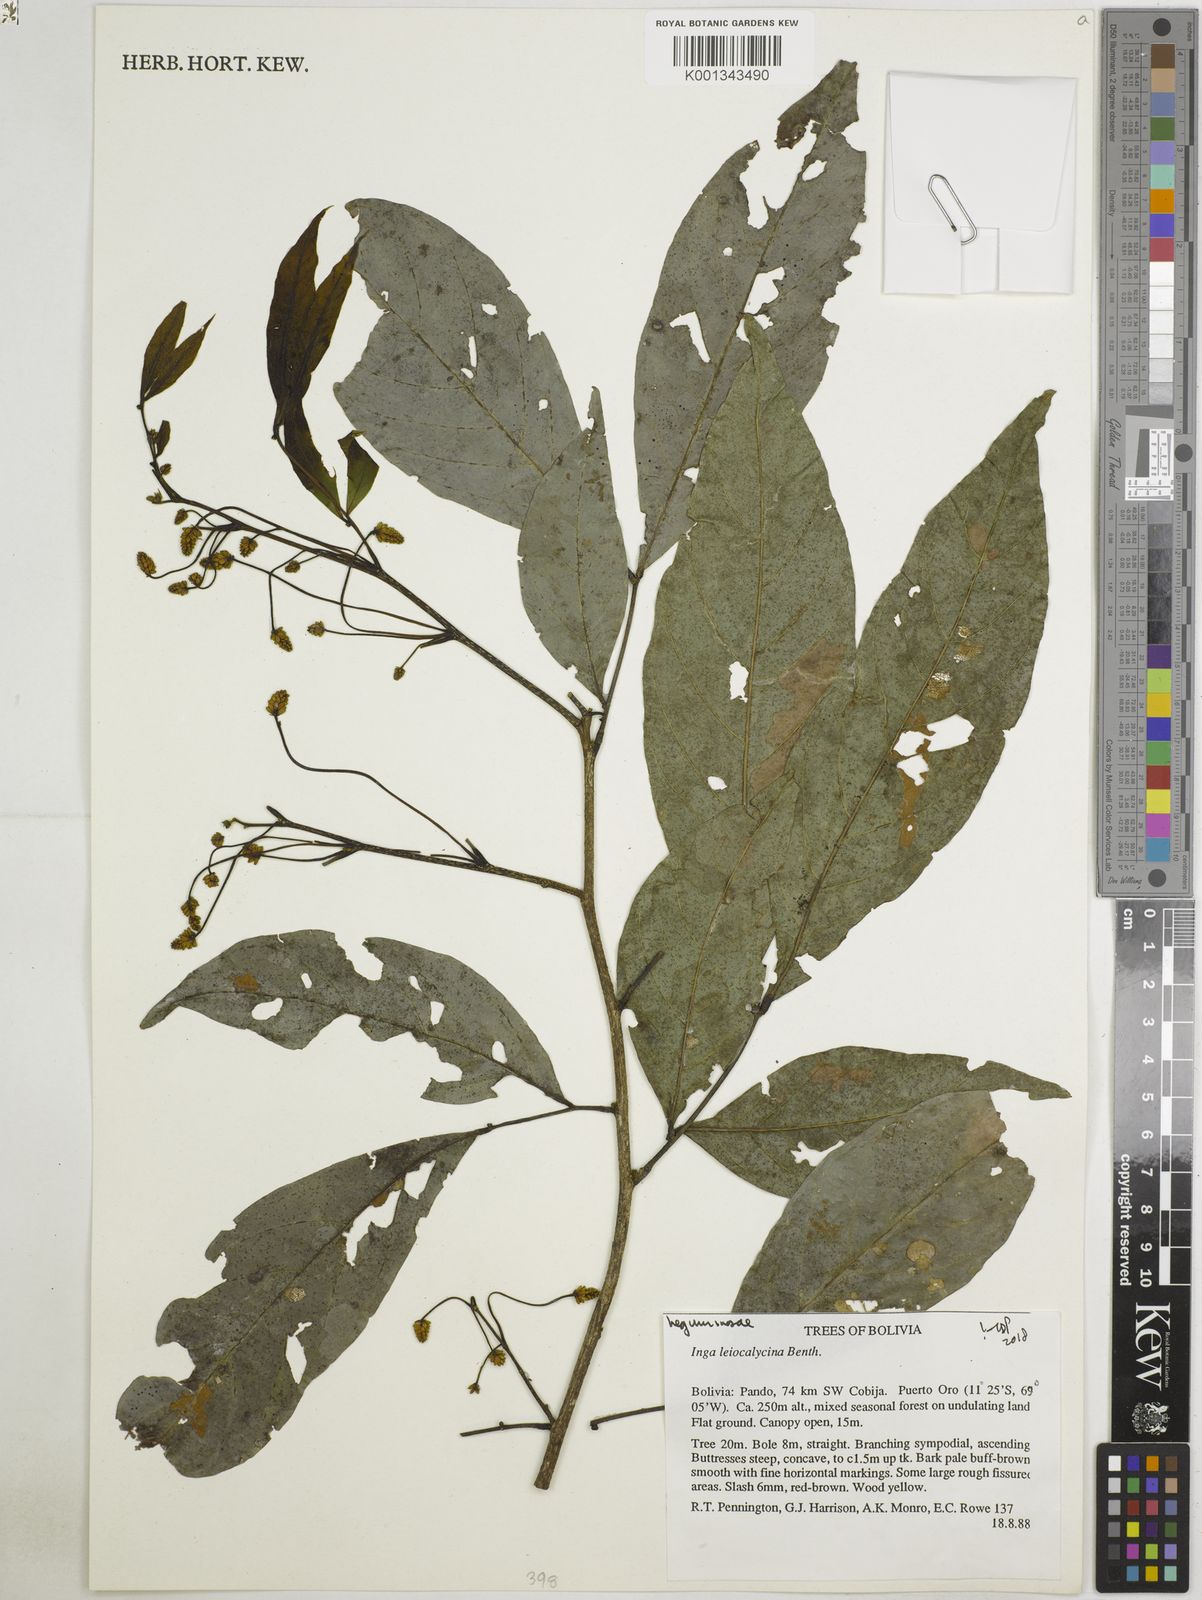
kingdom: Plantae
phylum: Tracheophyta
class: Magnoliopsida
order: Fabales
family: Fabaceae
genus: Inga
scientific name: Inga laevigata
